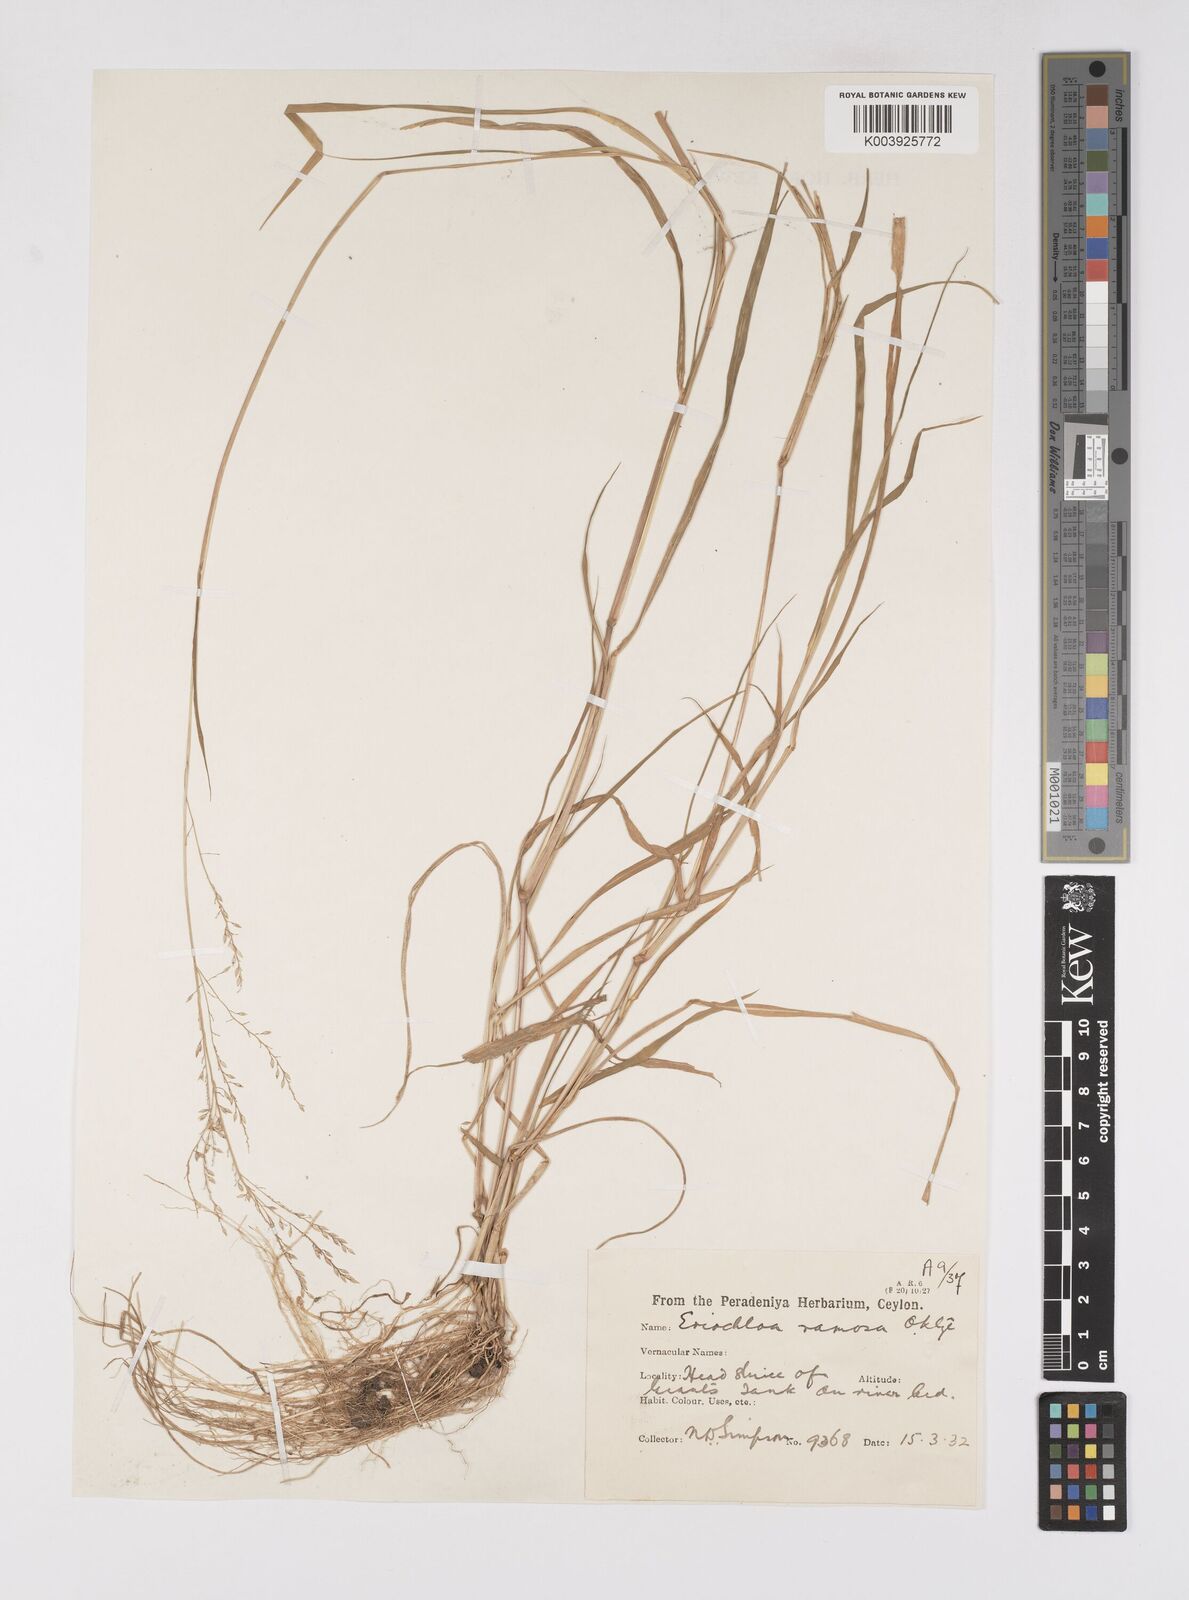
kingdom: Plantae
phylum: Tracheophyta
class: Liliopsida
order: Poales
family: Poaceae
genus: Eriochloa
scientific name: Eriochloa procera
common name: Spring grass
